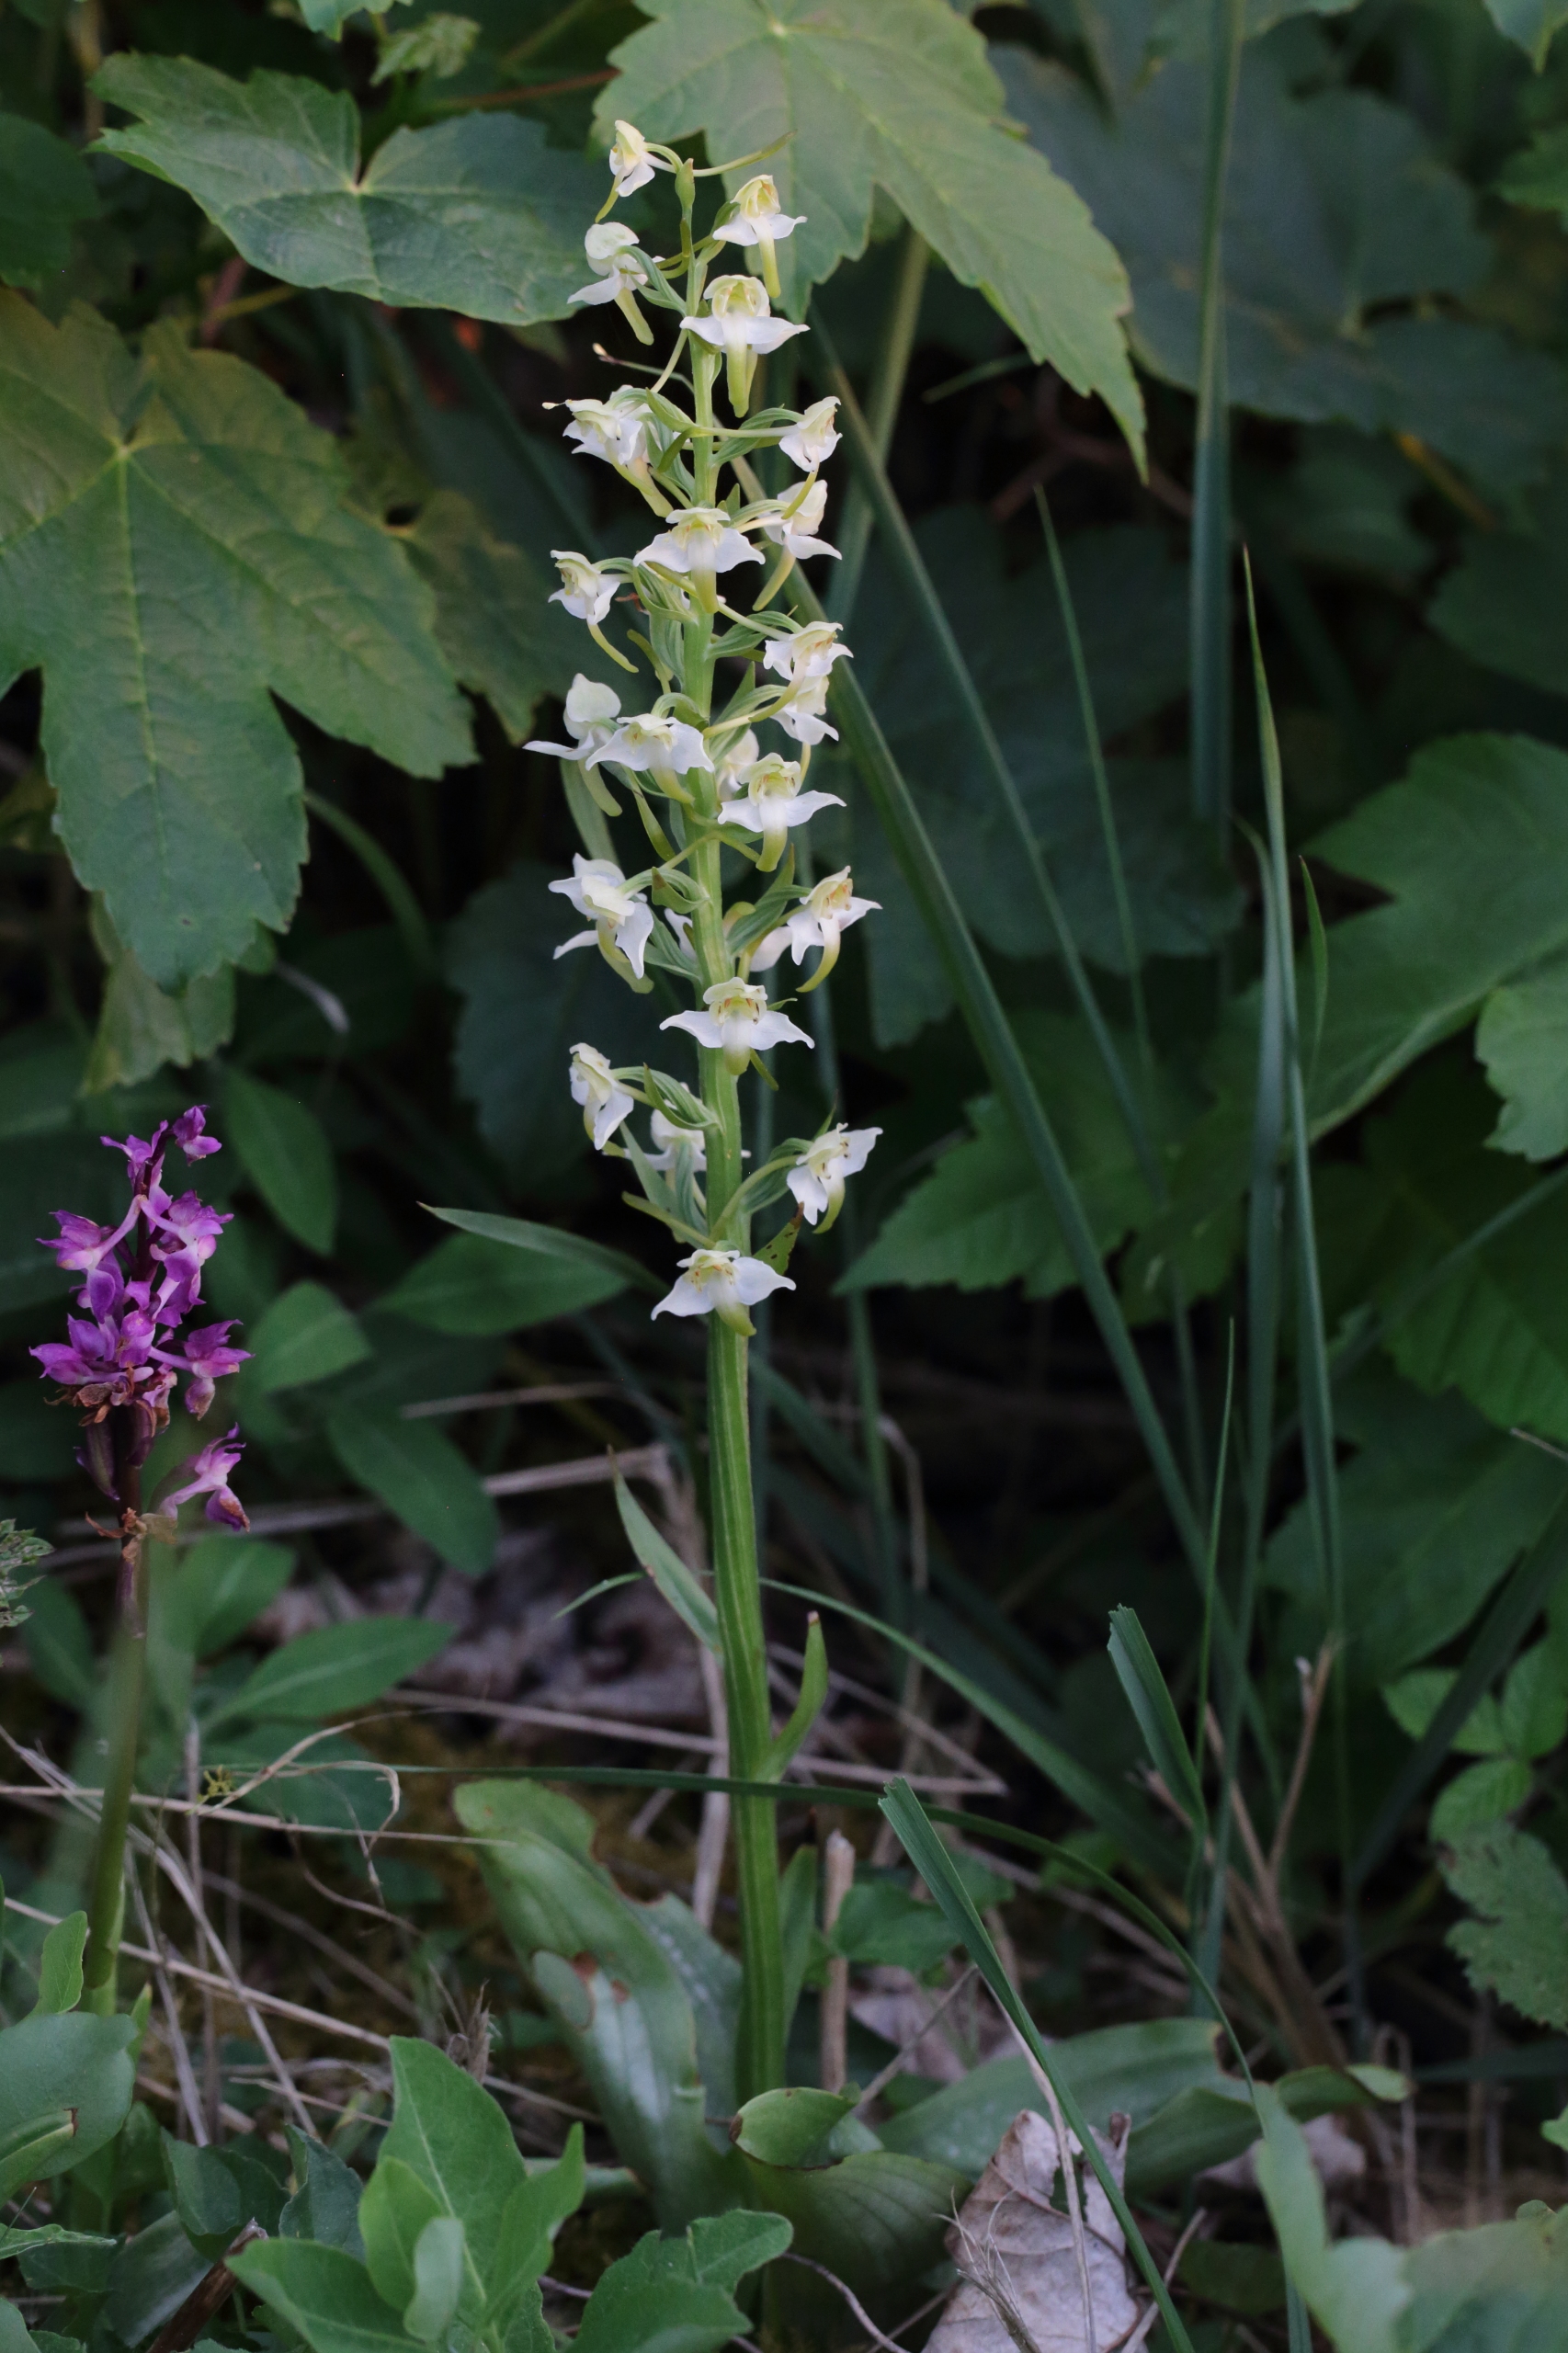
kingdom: Plantae
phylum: Tracheophyta
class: Liliopsida
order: Asparagales
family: Orchidaceae
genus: Platanthera
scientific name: Platanthera chlorantha
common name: Skov-gøgelilje
